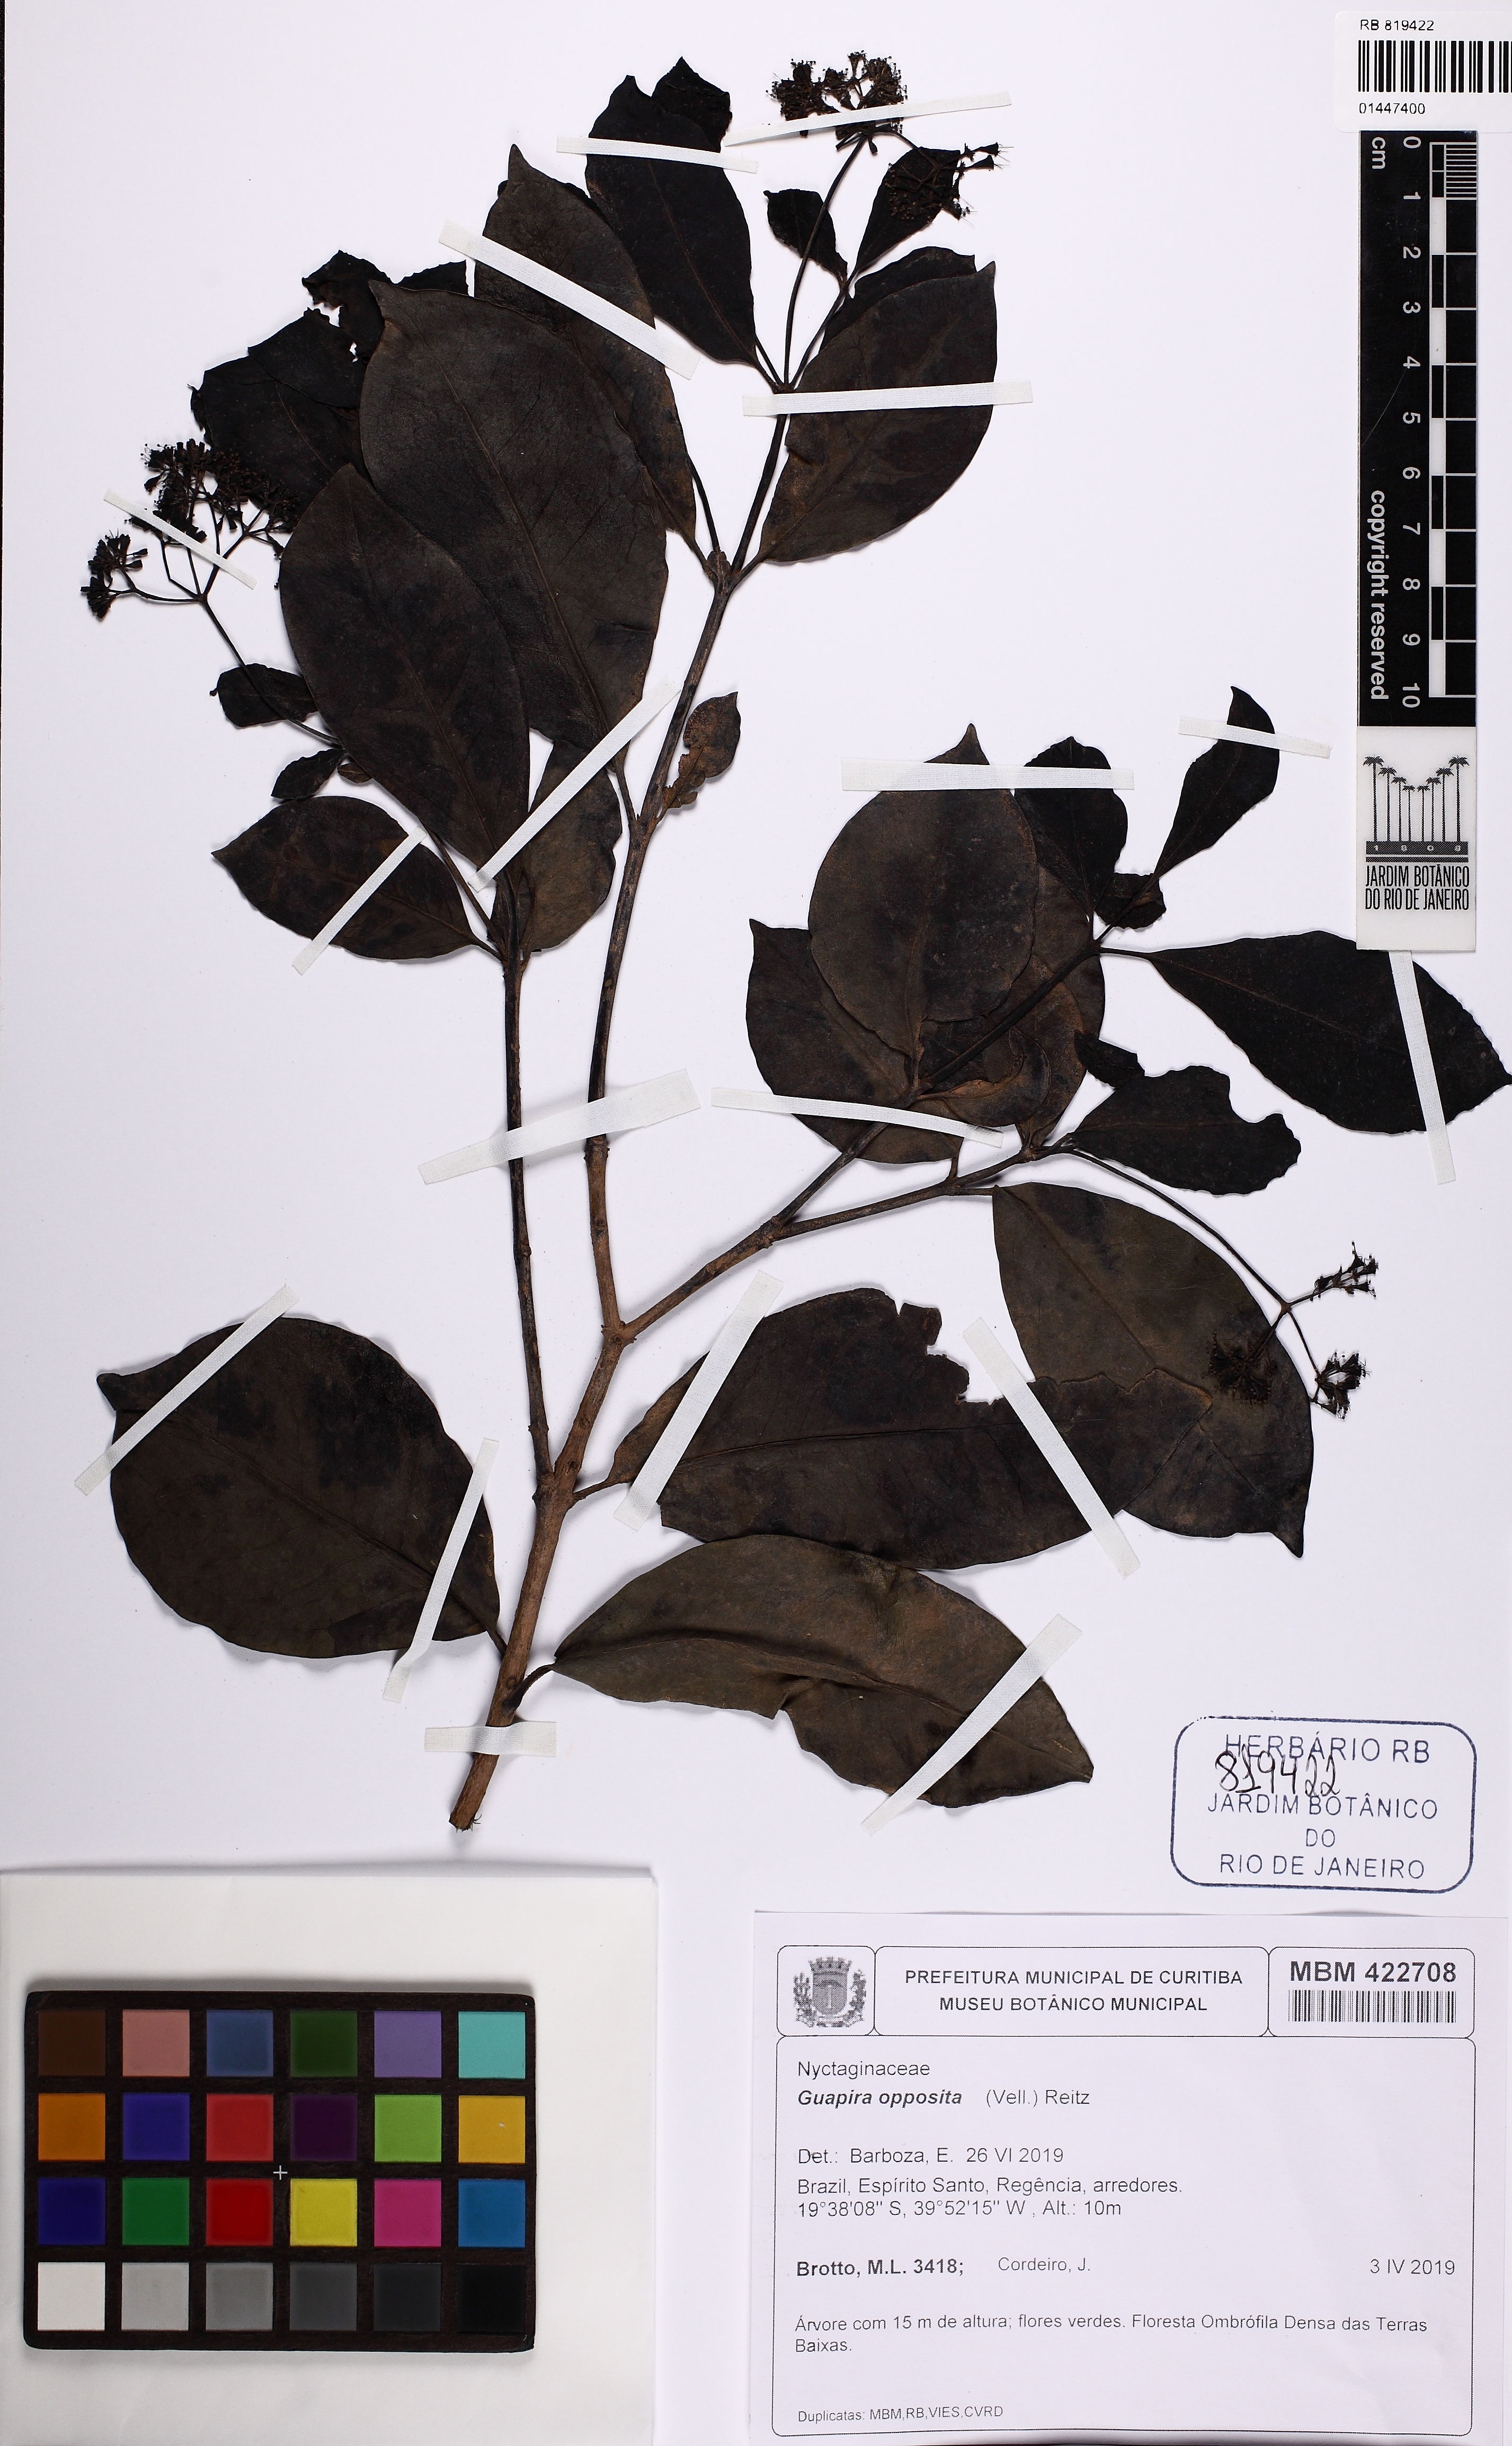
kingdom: Plantae
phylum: Tracheophyta
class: Magnoliopsida
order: Caryophyllales
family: Nyctaginaceae
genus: Guapira
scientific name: Guapira opposita
